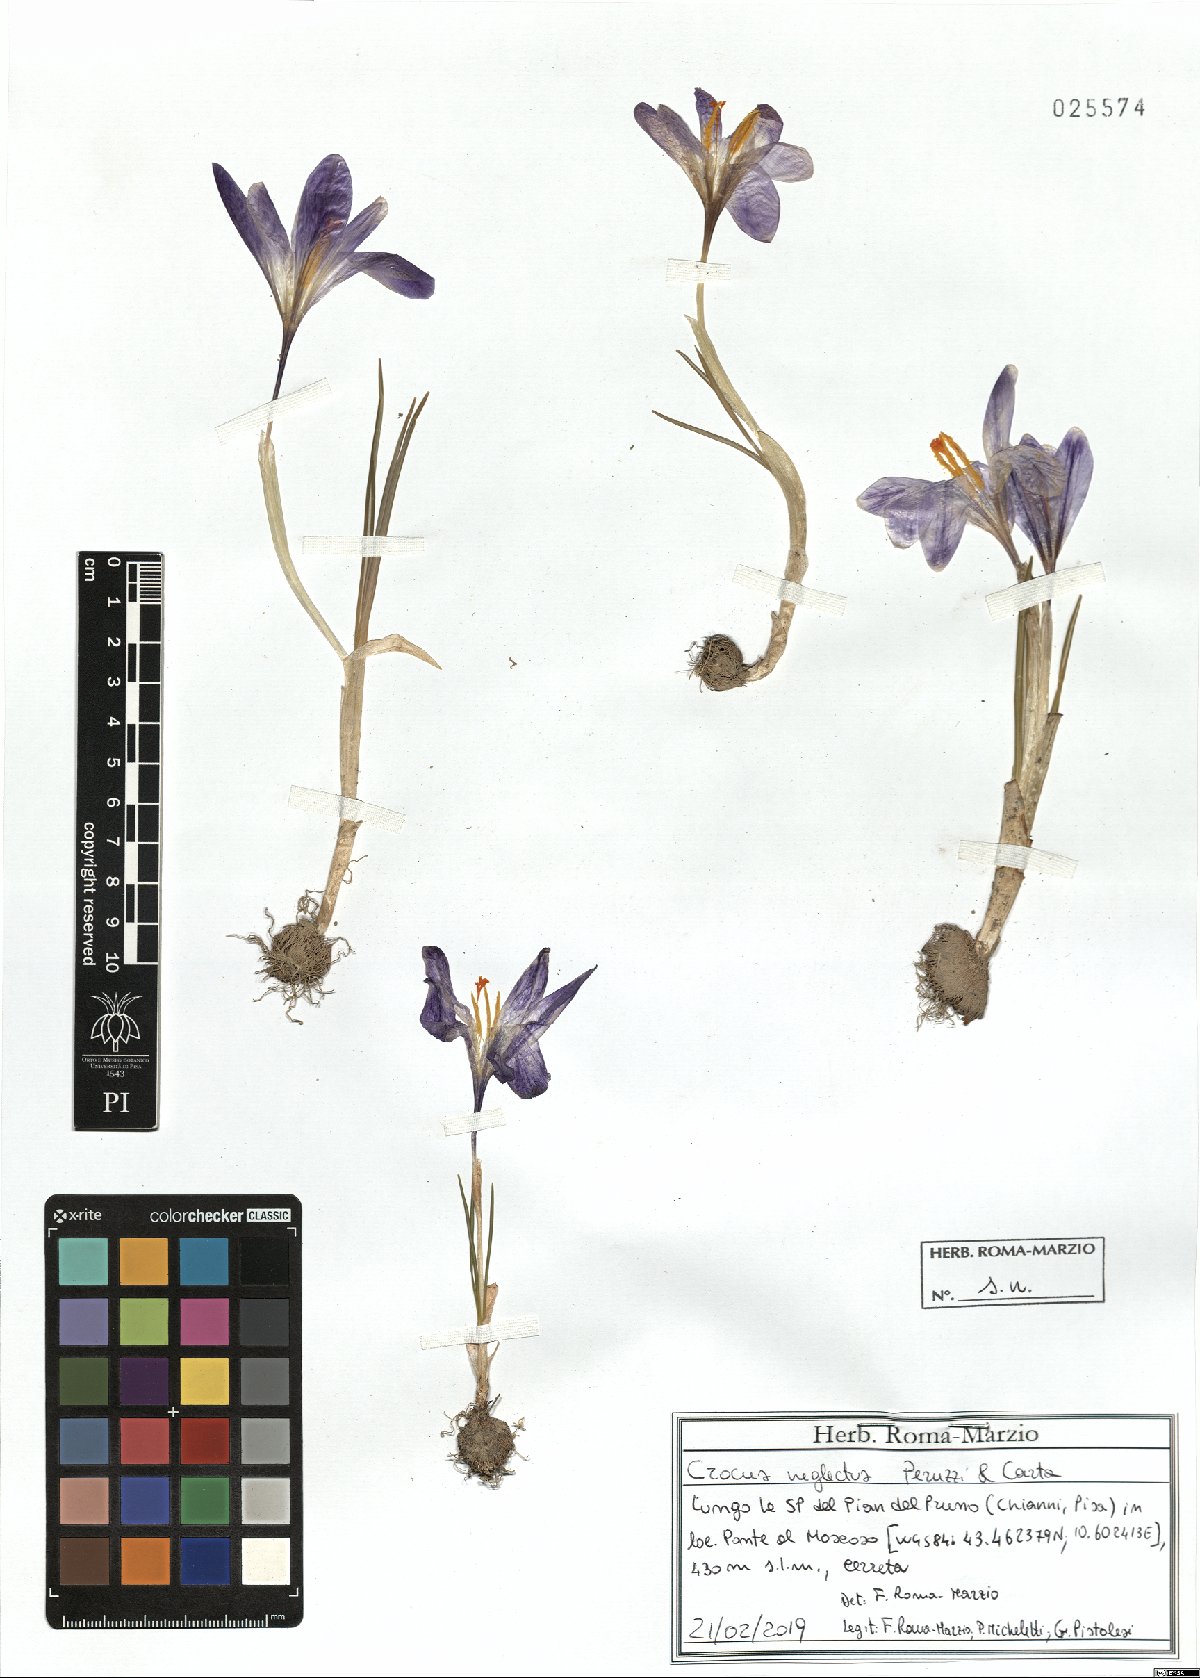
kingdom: Plantae
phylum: Tracheophyta
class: Liliopsida
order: Asparagales
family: Iridaceae
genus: Crocus
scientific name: Crocus neglectus
